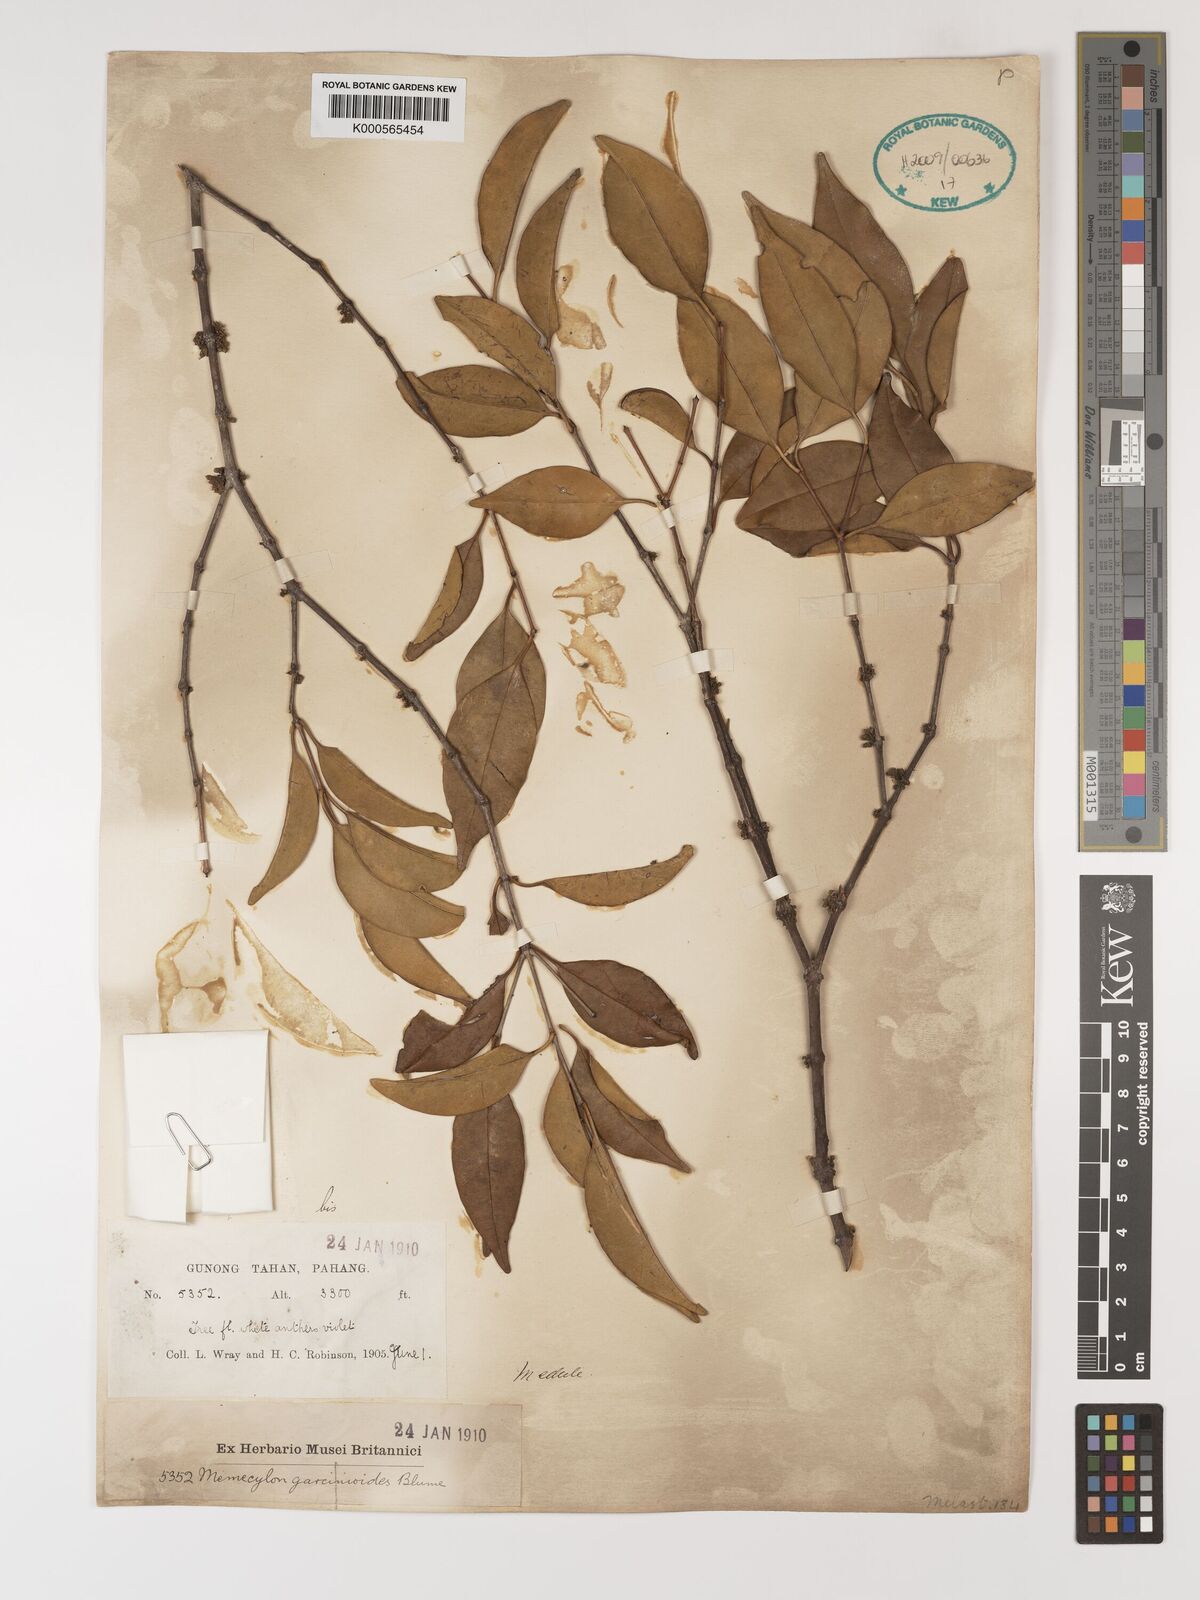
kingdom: Plantae
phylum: Tracheophyta
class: Magnoliopsida
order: Myrtales
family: Melastomataceae
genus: Memecylon
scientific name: Memecylon garcinioides
